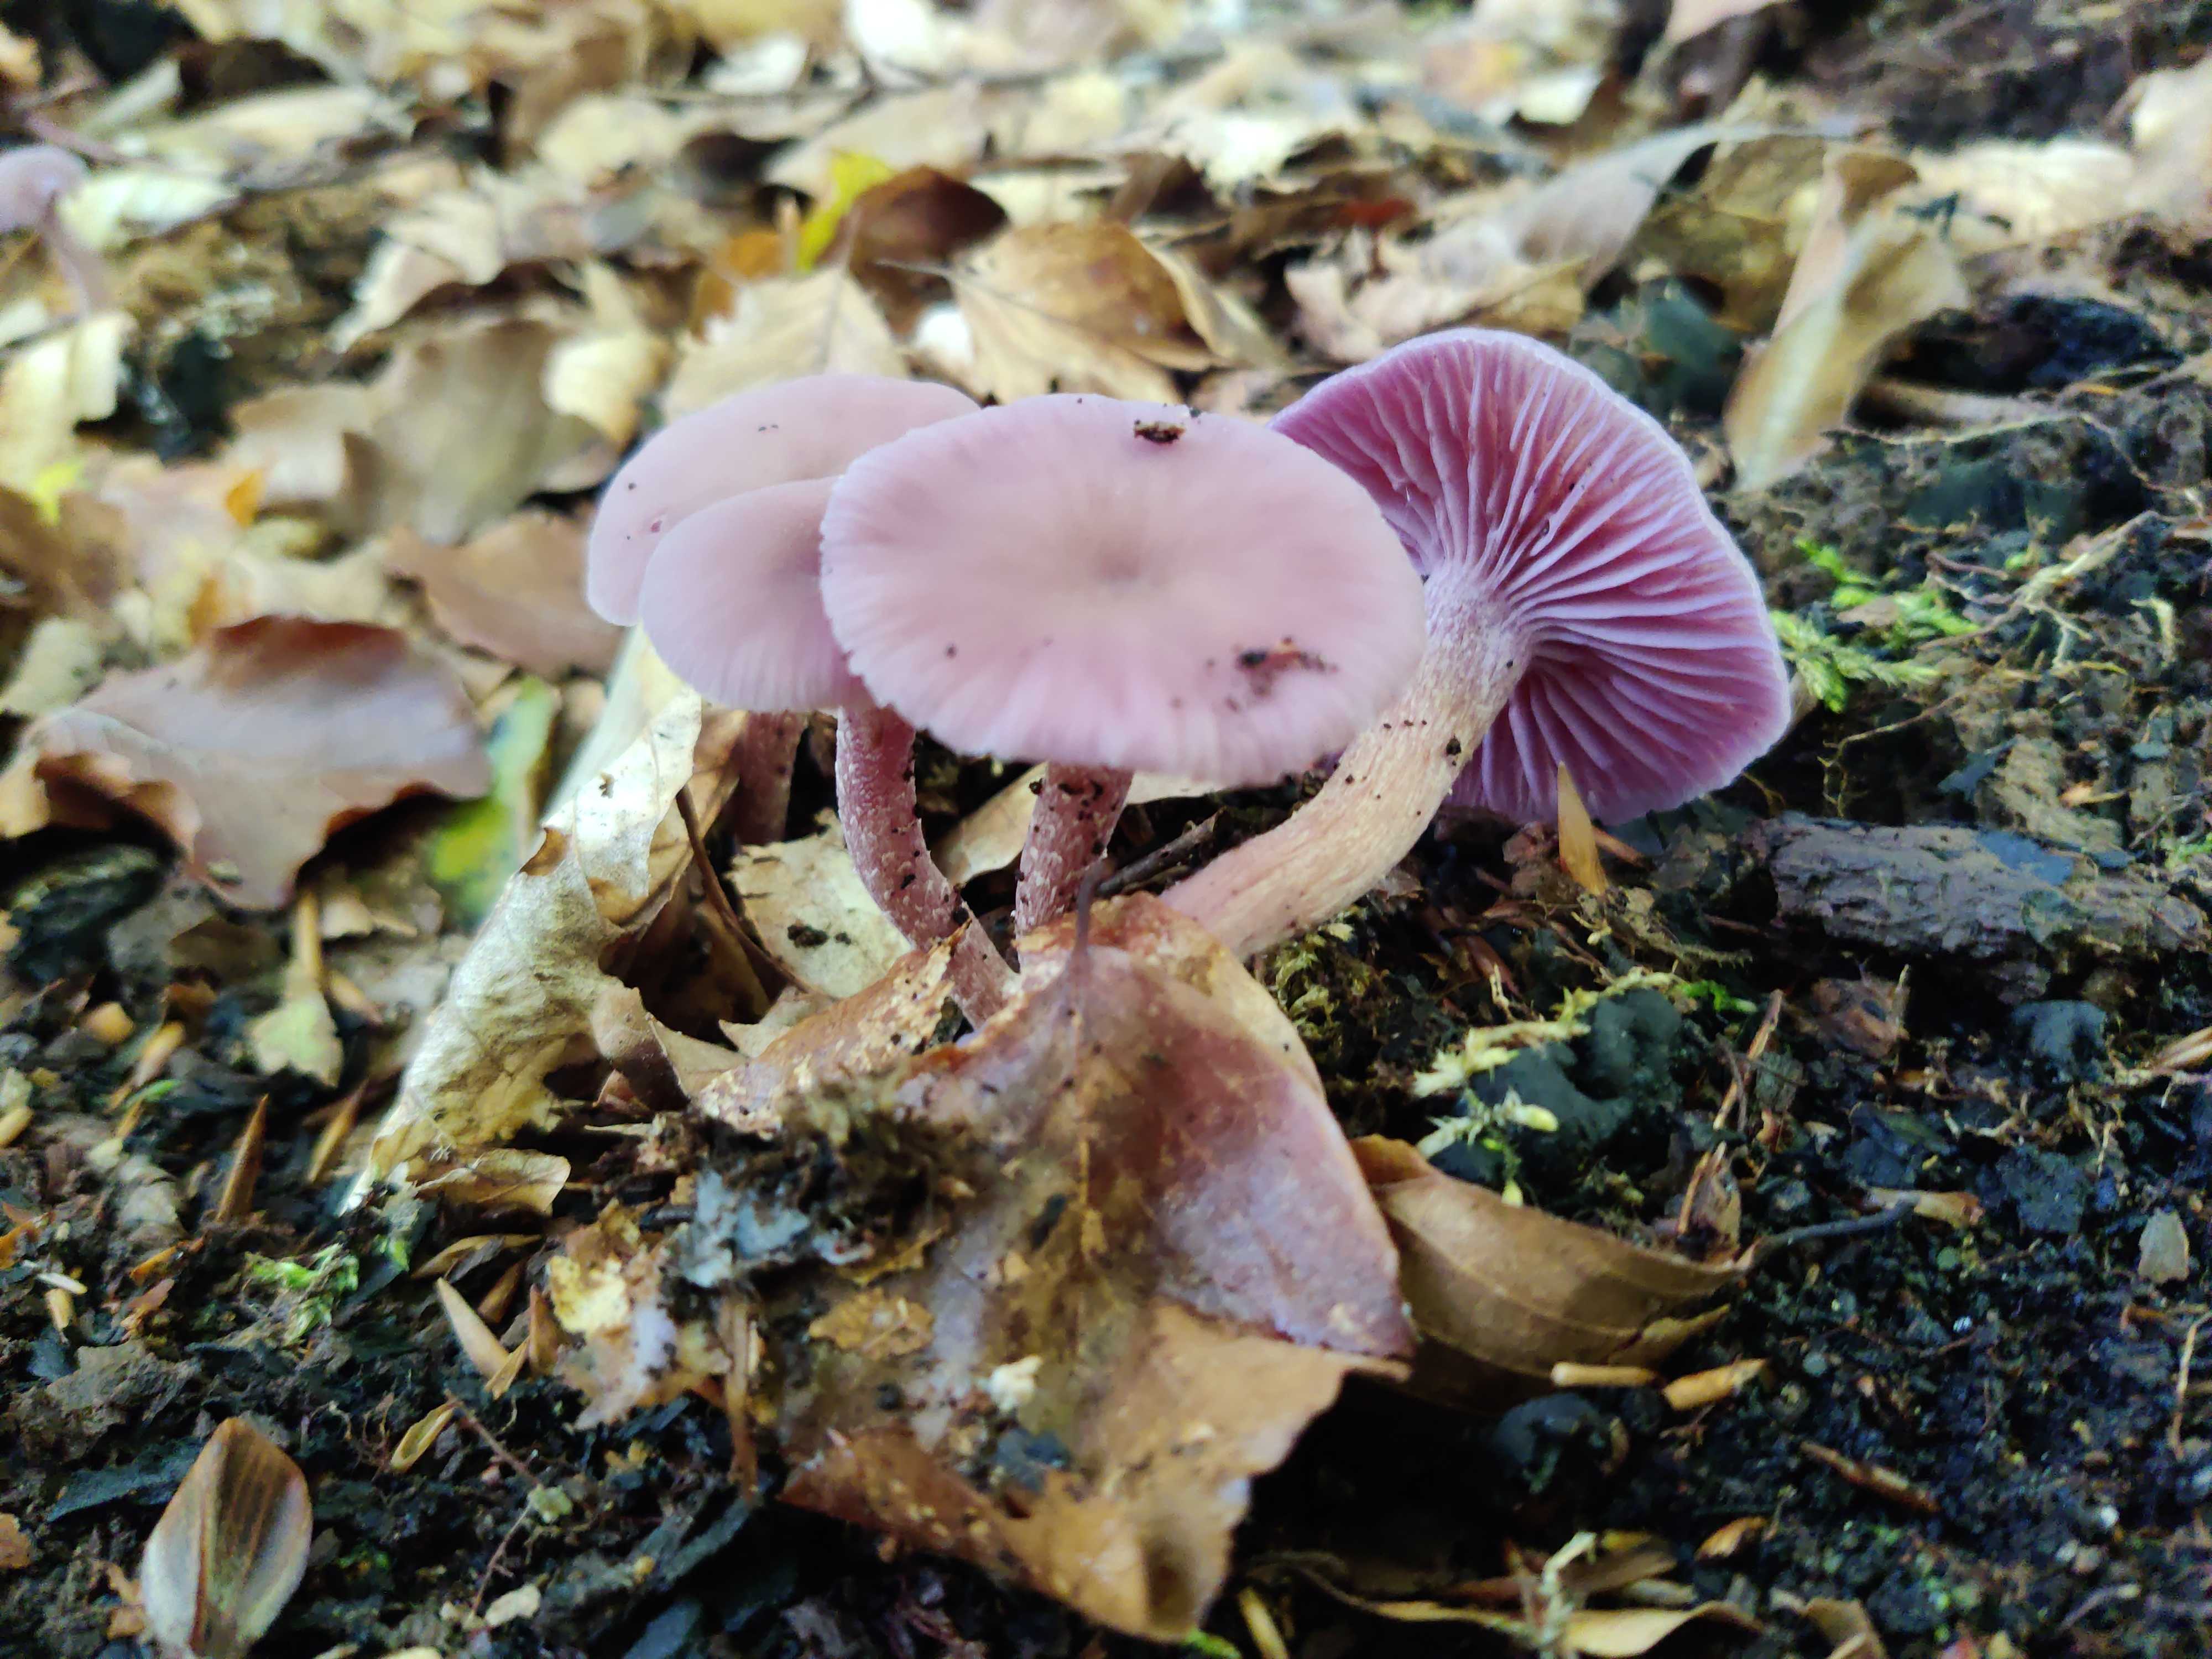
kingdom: Fungi
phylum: Basidiomycota
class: Agaricomycetes
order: Agaricales
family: Hydnangiaceae
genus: Laccaria
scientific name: Laccaria amethystina
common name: violet ametysthat
